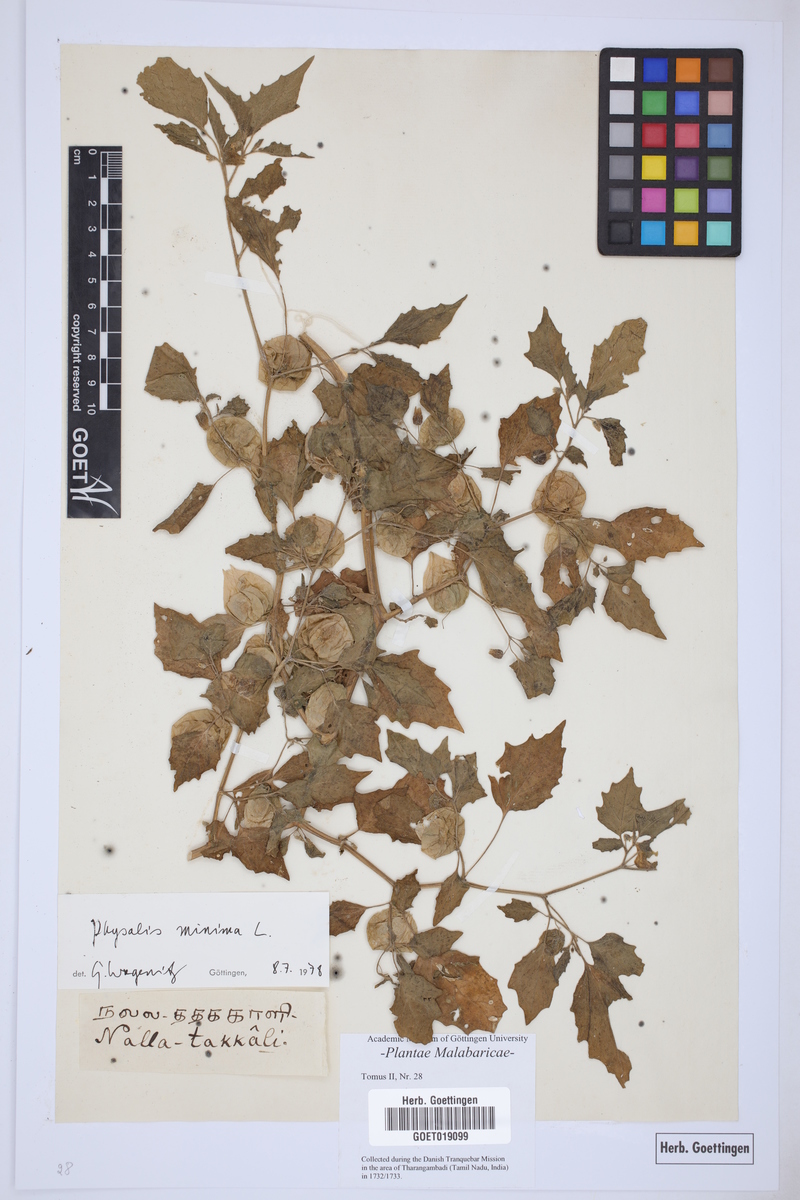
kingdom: Plantae
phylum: Tracheophyta
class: Magnoliopsida
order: Solanales
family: Solanaceae
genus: Physalis
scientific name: Physalis angulata
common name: Angular winter-cherry
